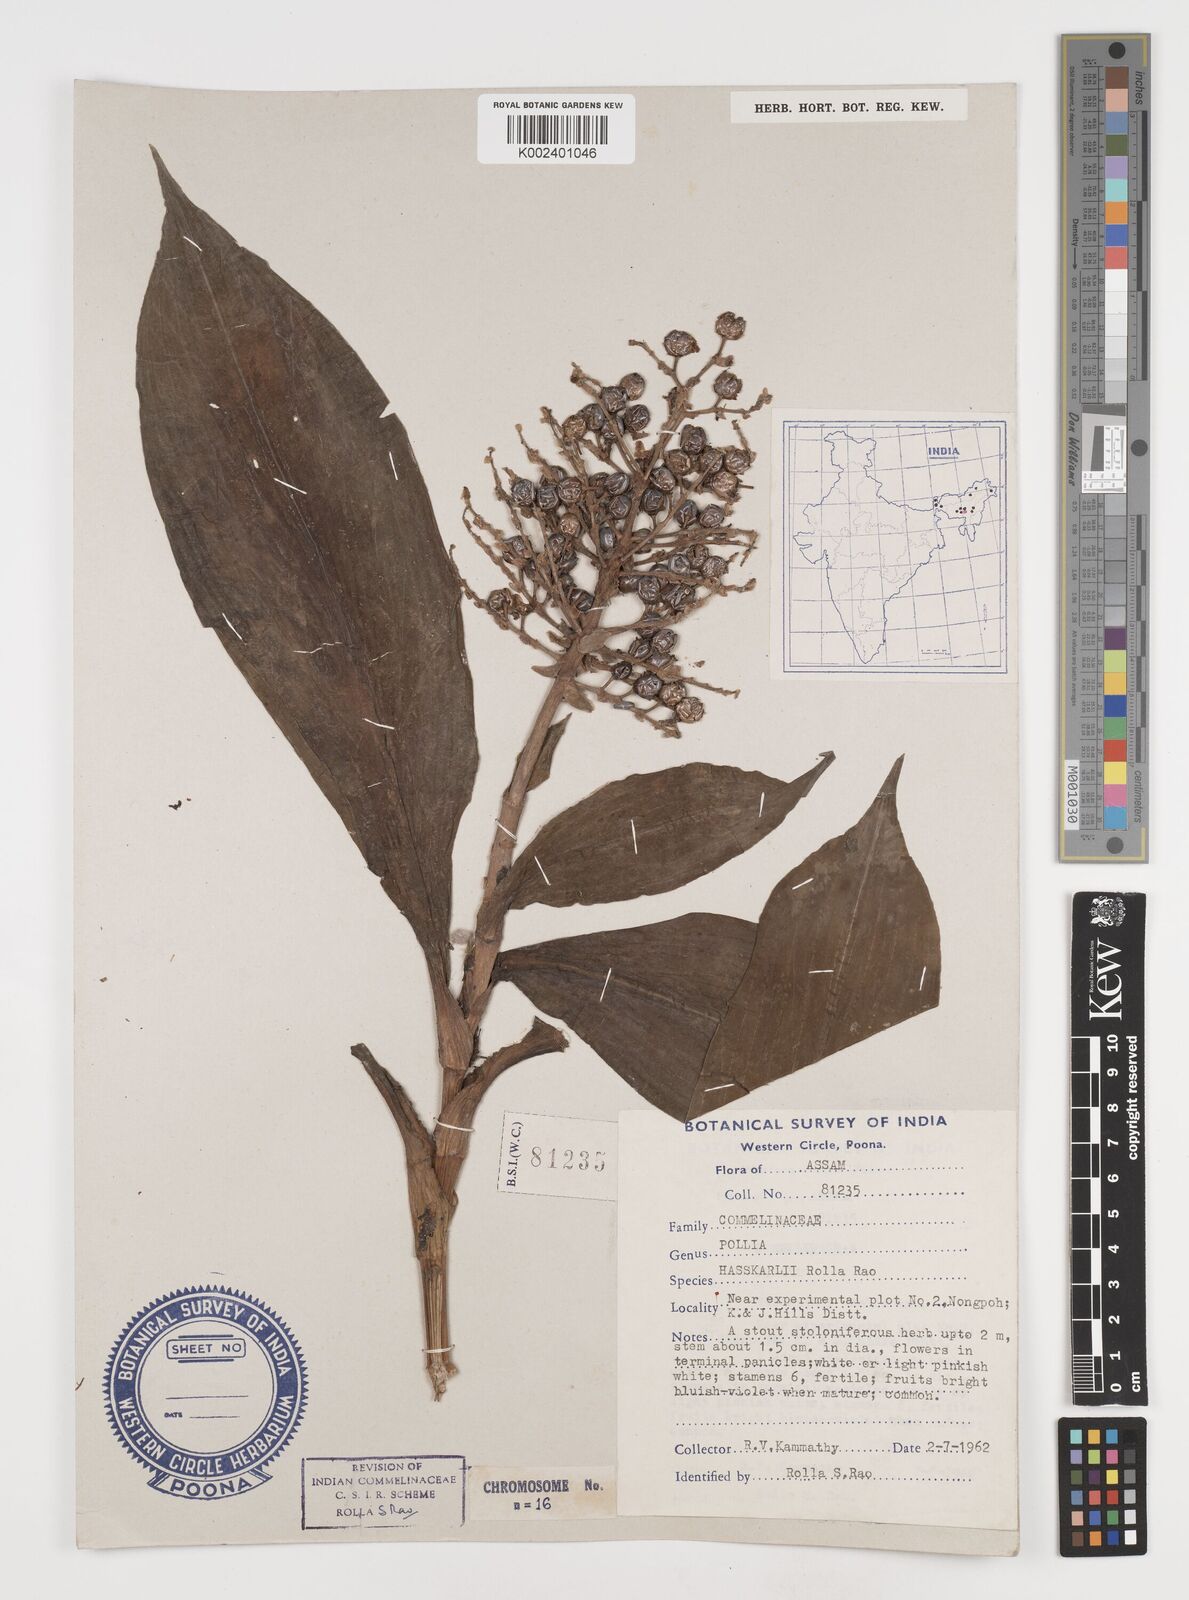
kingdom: Plantae
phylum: Tracheophyta
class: Liliopsida
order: Commelinales
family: Commelinaceae
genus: Pollia
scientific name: Pollia hasskarlii
